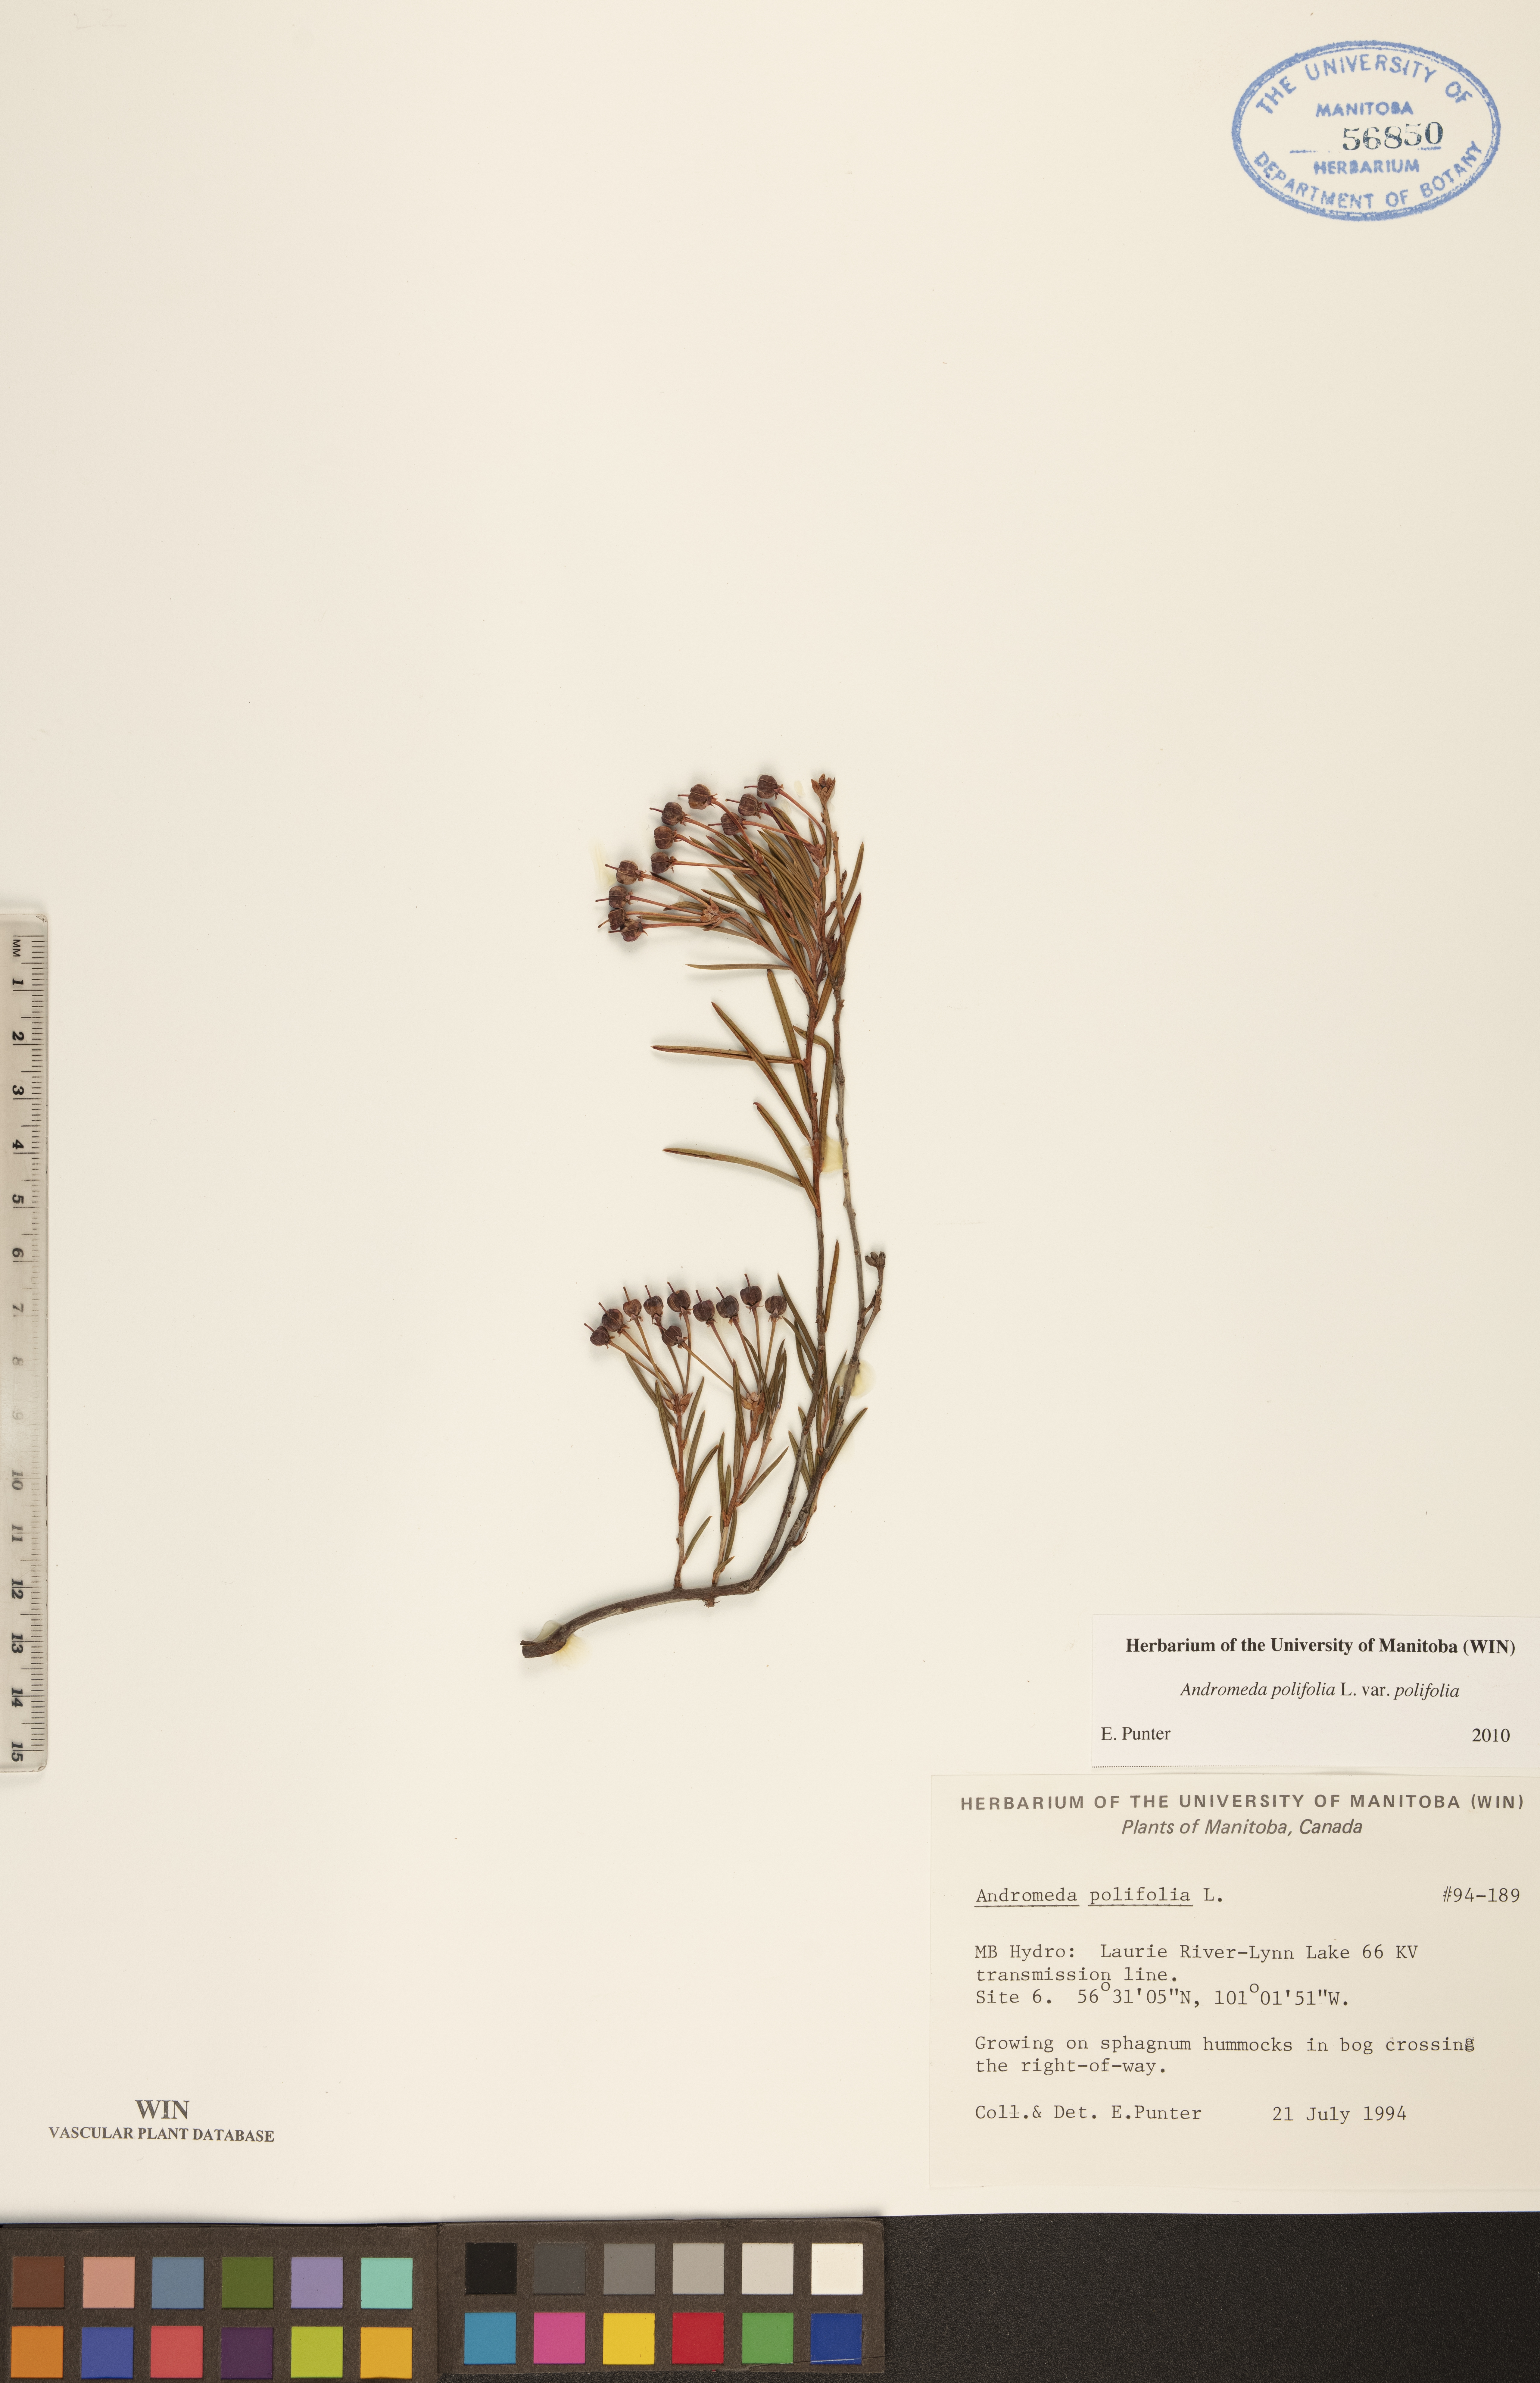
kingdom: Plantae
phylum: Tracheophyta
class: Magnoliopsida
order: Ericales
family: Ericaceae
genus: Andromeda
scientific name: Andromeda polifolia
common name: Bog-rosemary
